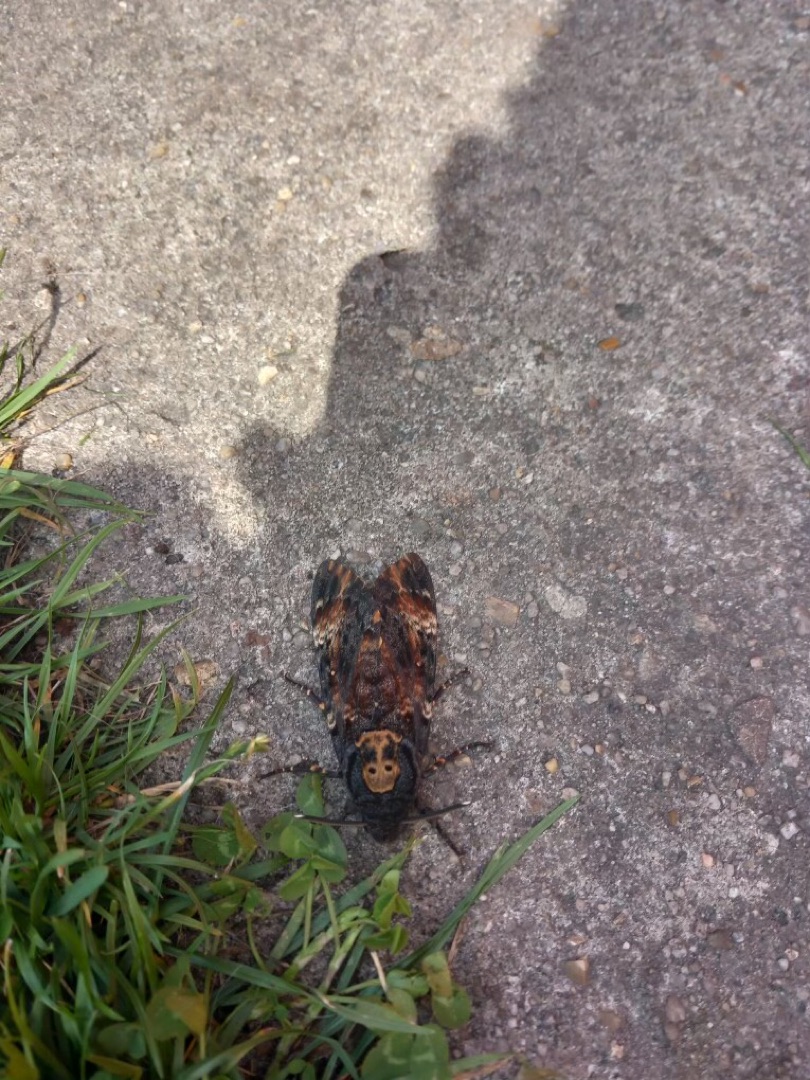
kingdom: Animalia
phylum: Arthropoda
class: Insecta
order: Lepidoptera
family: Sphingidae
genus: Acherontia
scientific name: Acherontia atropos
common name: Dødningehoved
